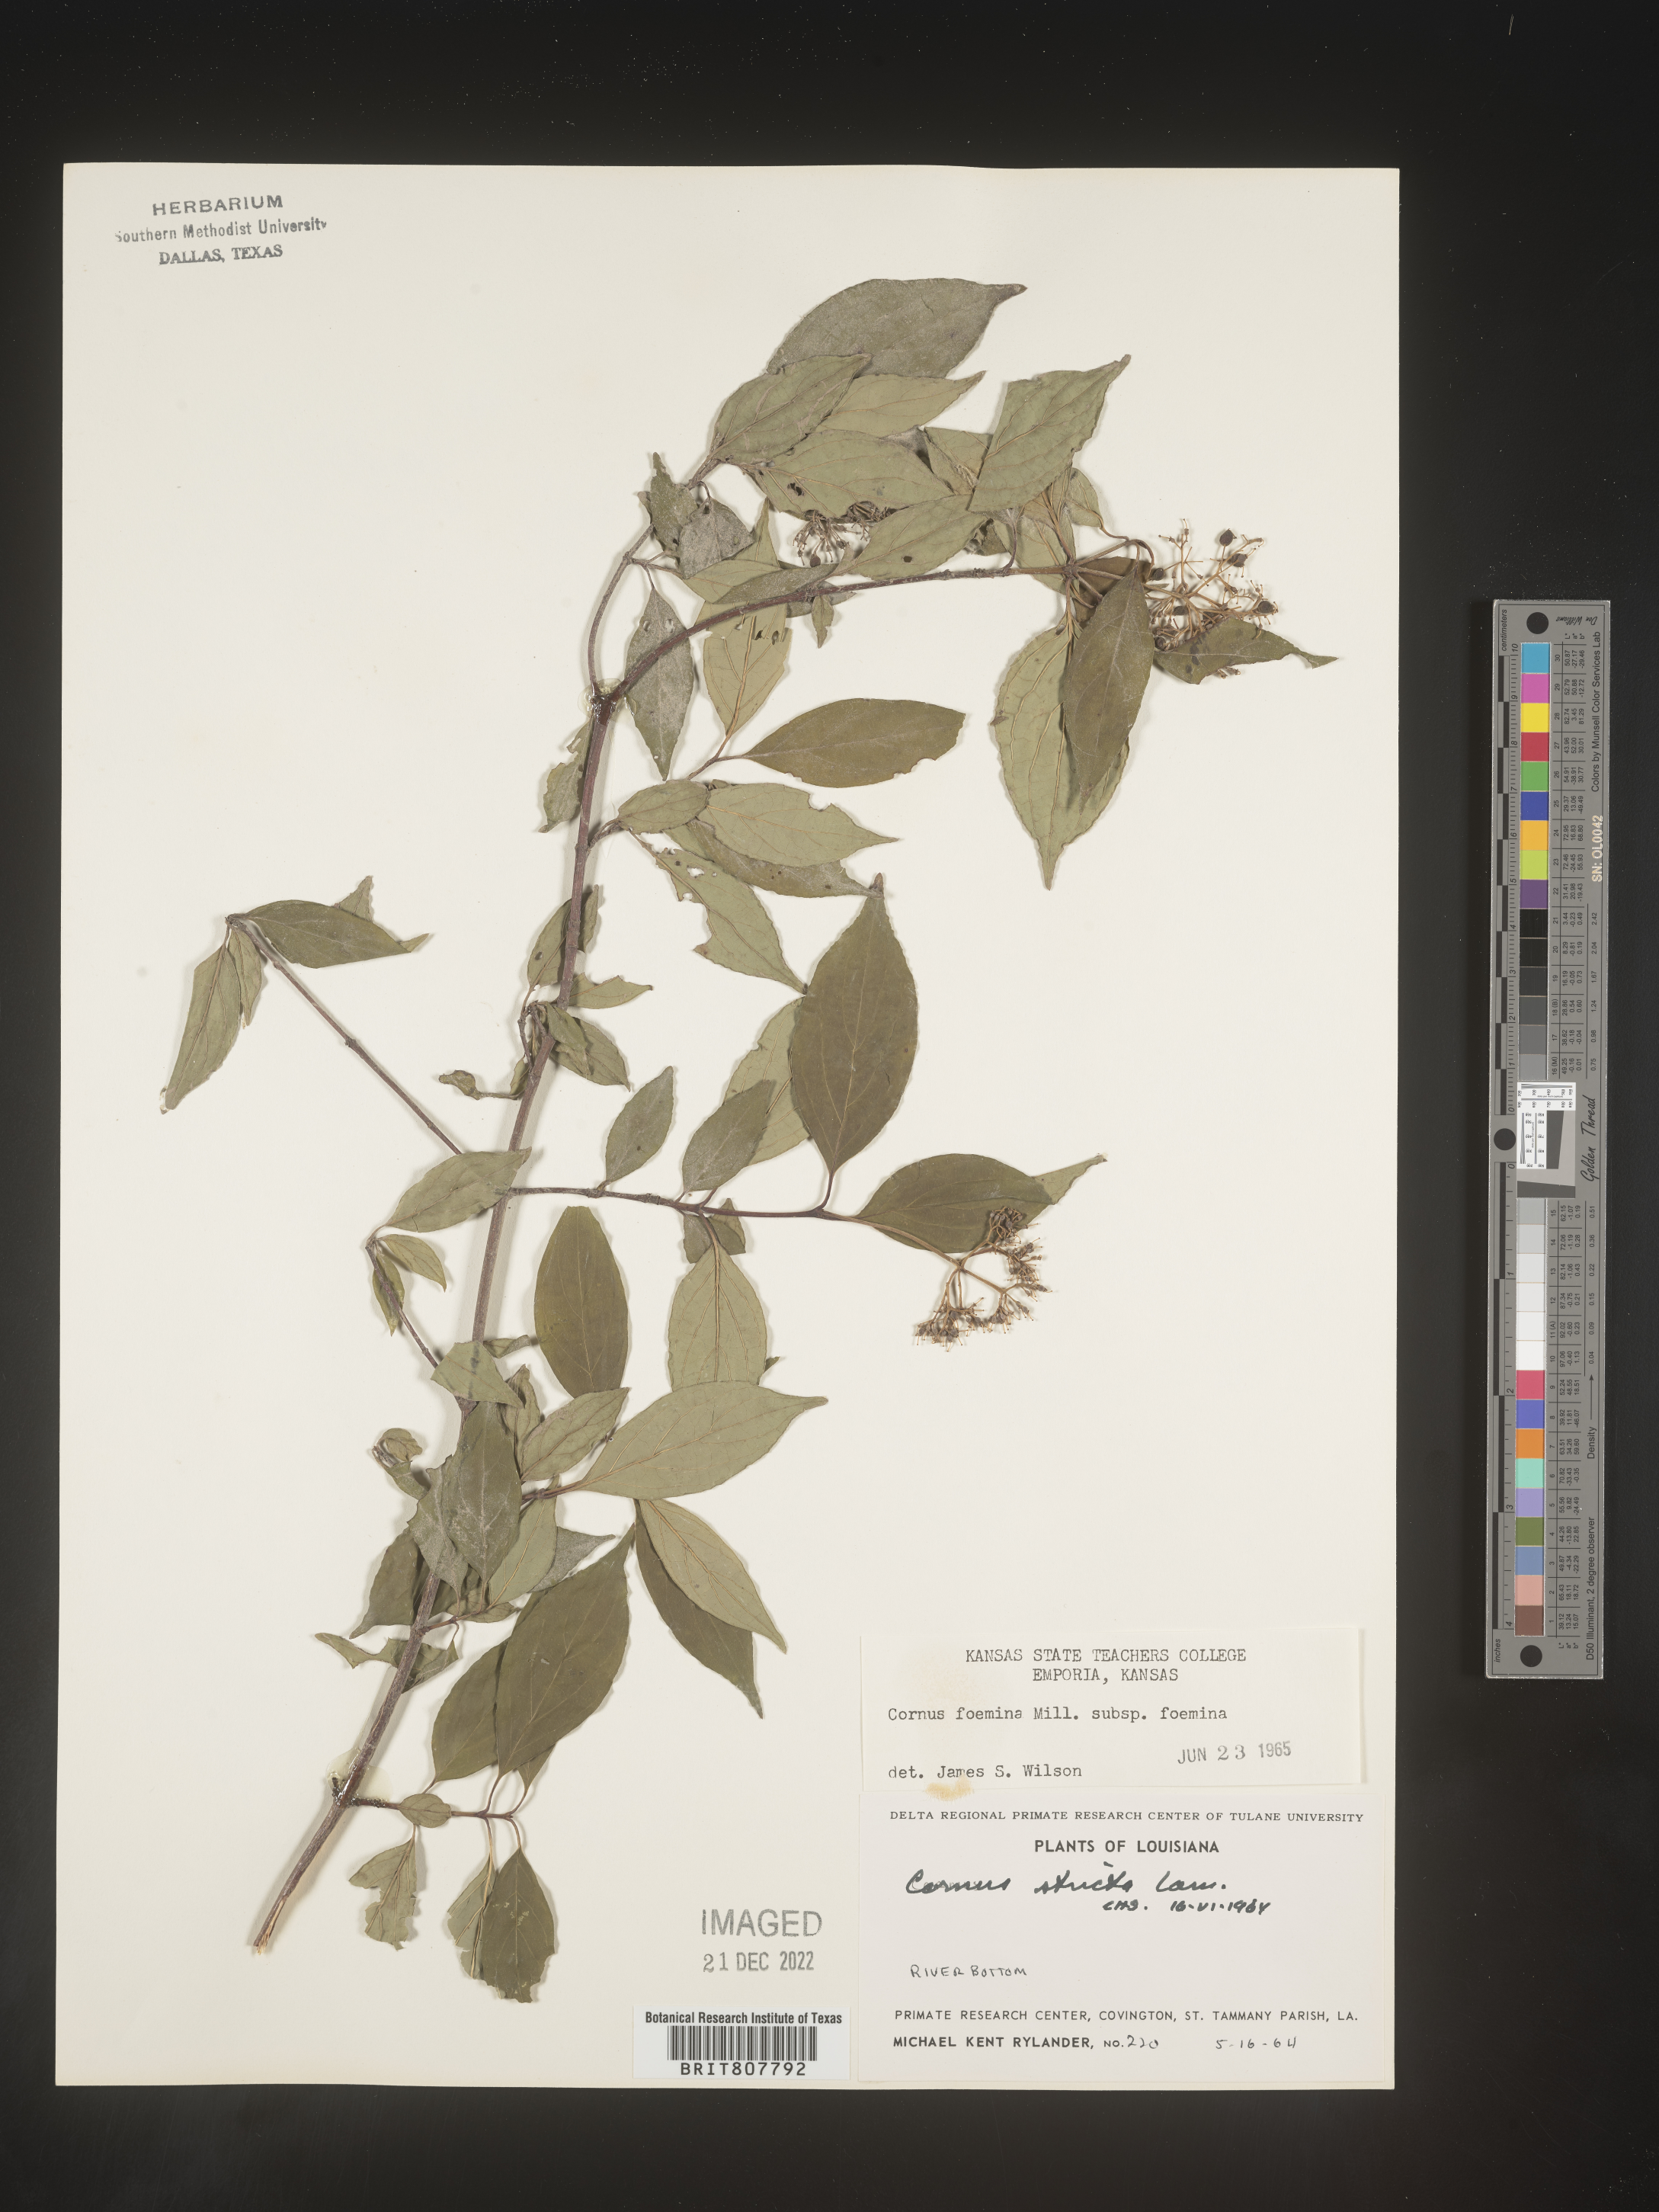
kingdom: Plantae
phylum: Tracheophyta
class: Magnoliopsida
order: Cornales
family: Cornaceae
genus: Cornus
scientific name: Cornus foemina
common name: Swamp dogwood
